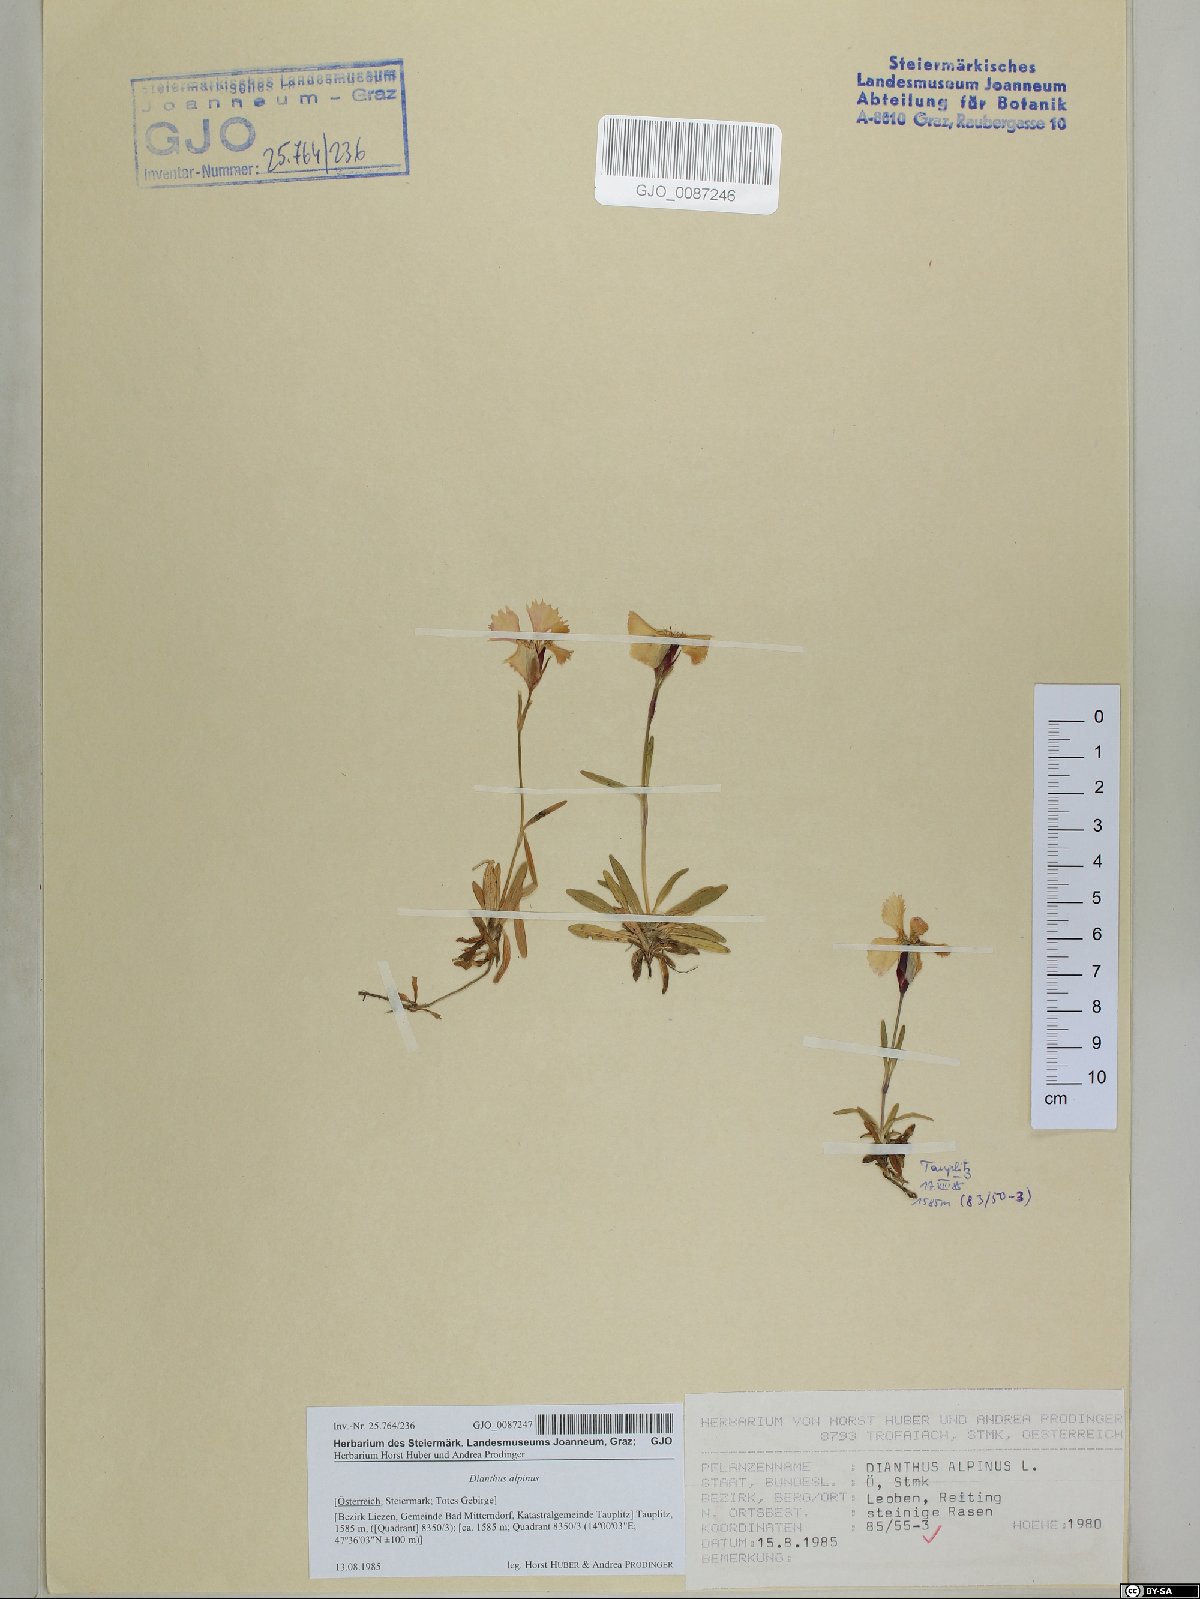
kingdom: Plantae
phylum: Tracheophyta
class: Magnoliopsida
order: Caryophyllales
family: Caryophyllaceae
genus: Dianthus
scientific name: Dianthus alpinus
